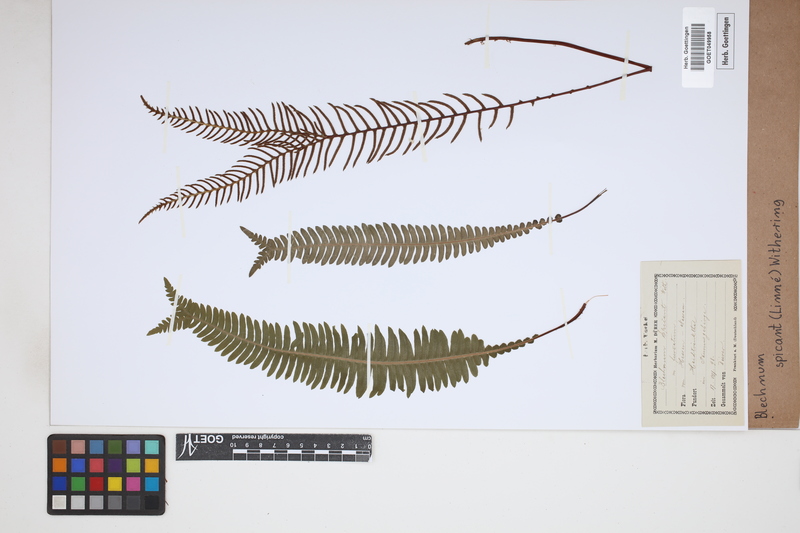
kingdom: Plantae
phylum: Tracheophyta
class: Polypodiopsida
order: Polypodiales
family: Blechnaceae
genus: Struthiopteris
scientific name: Struthiopteris spicant
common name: Deer fern
